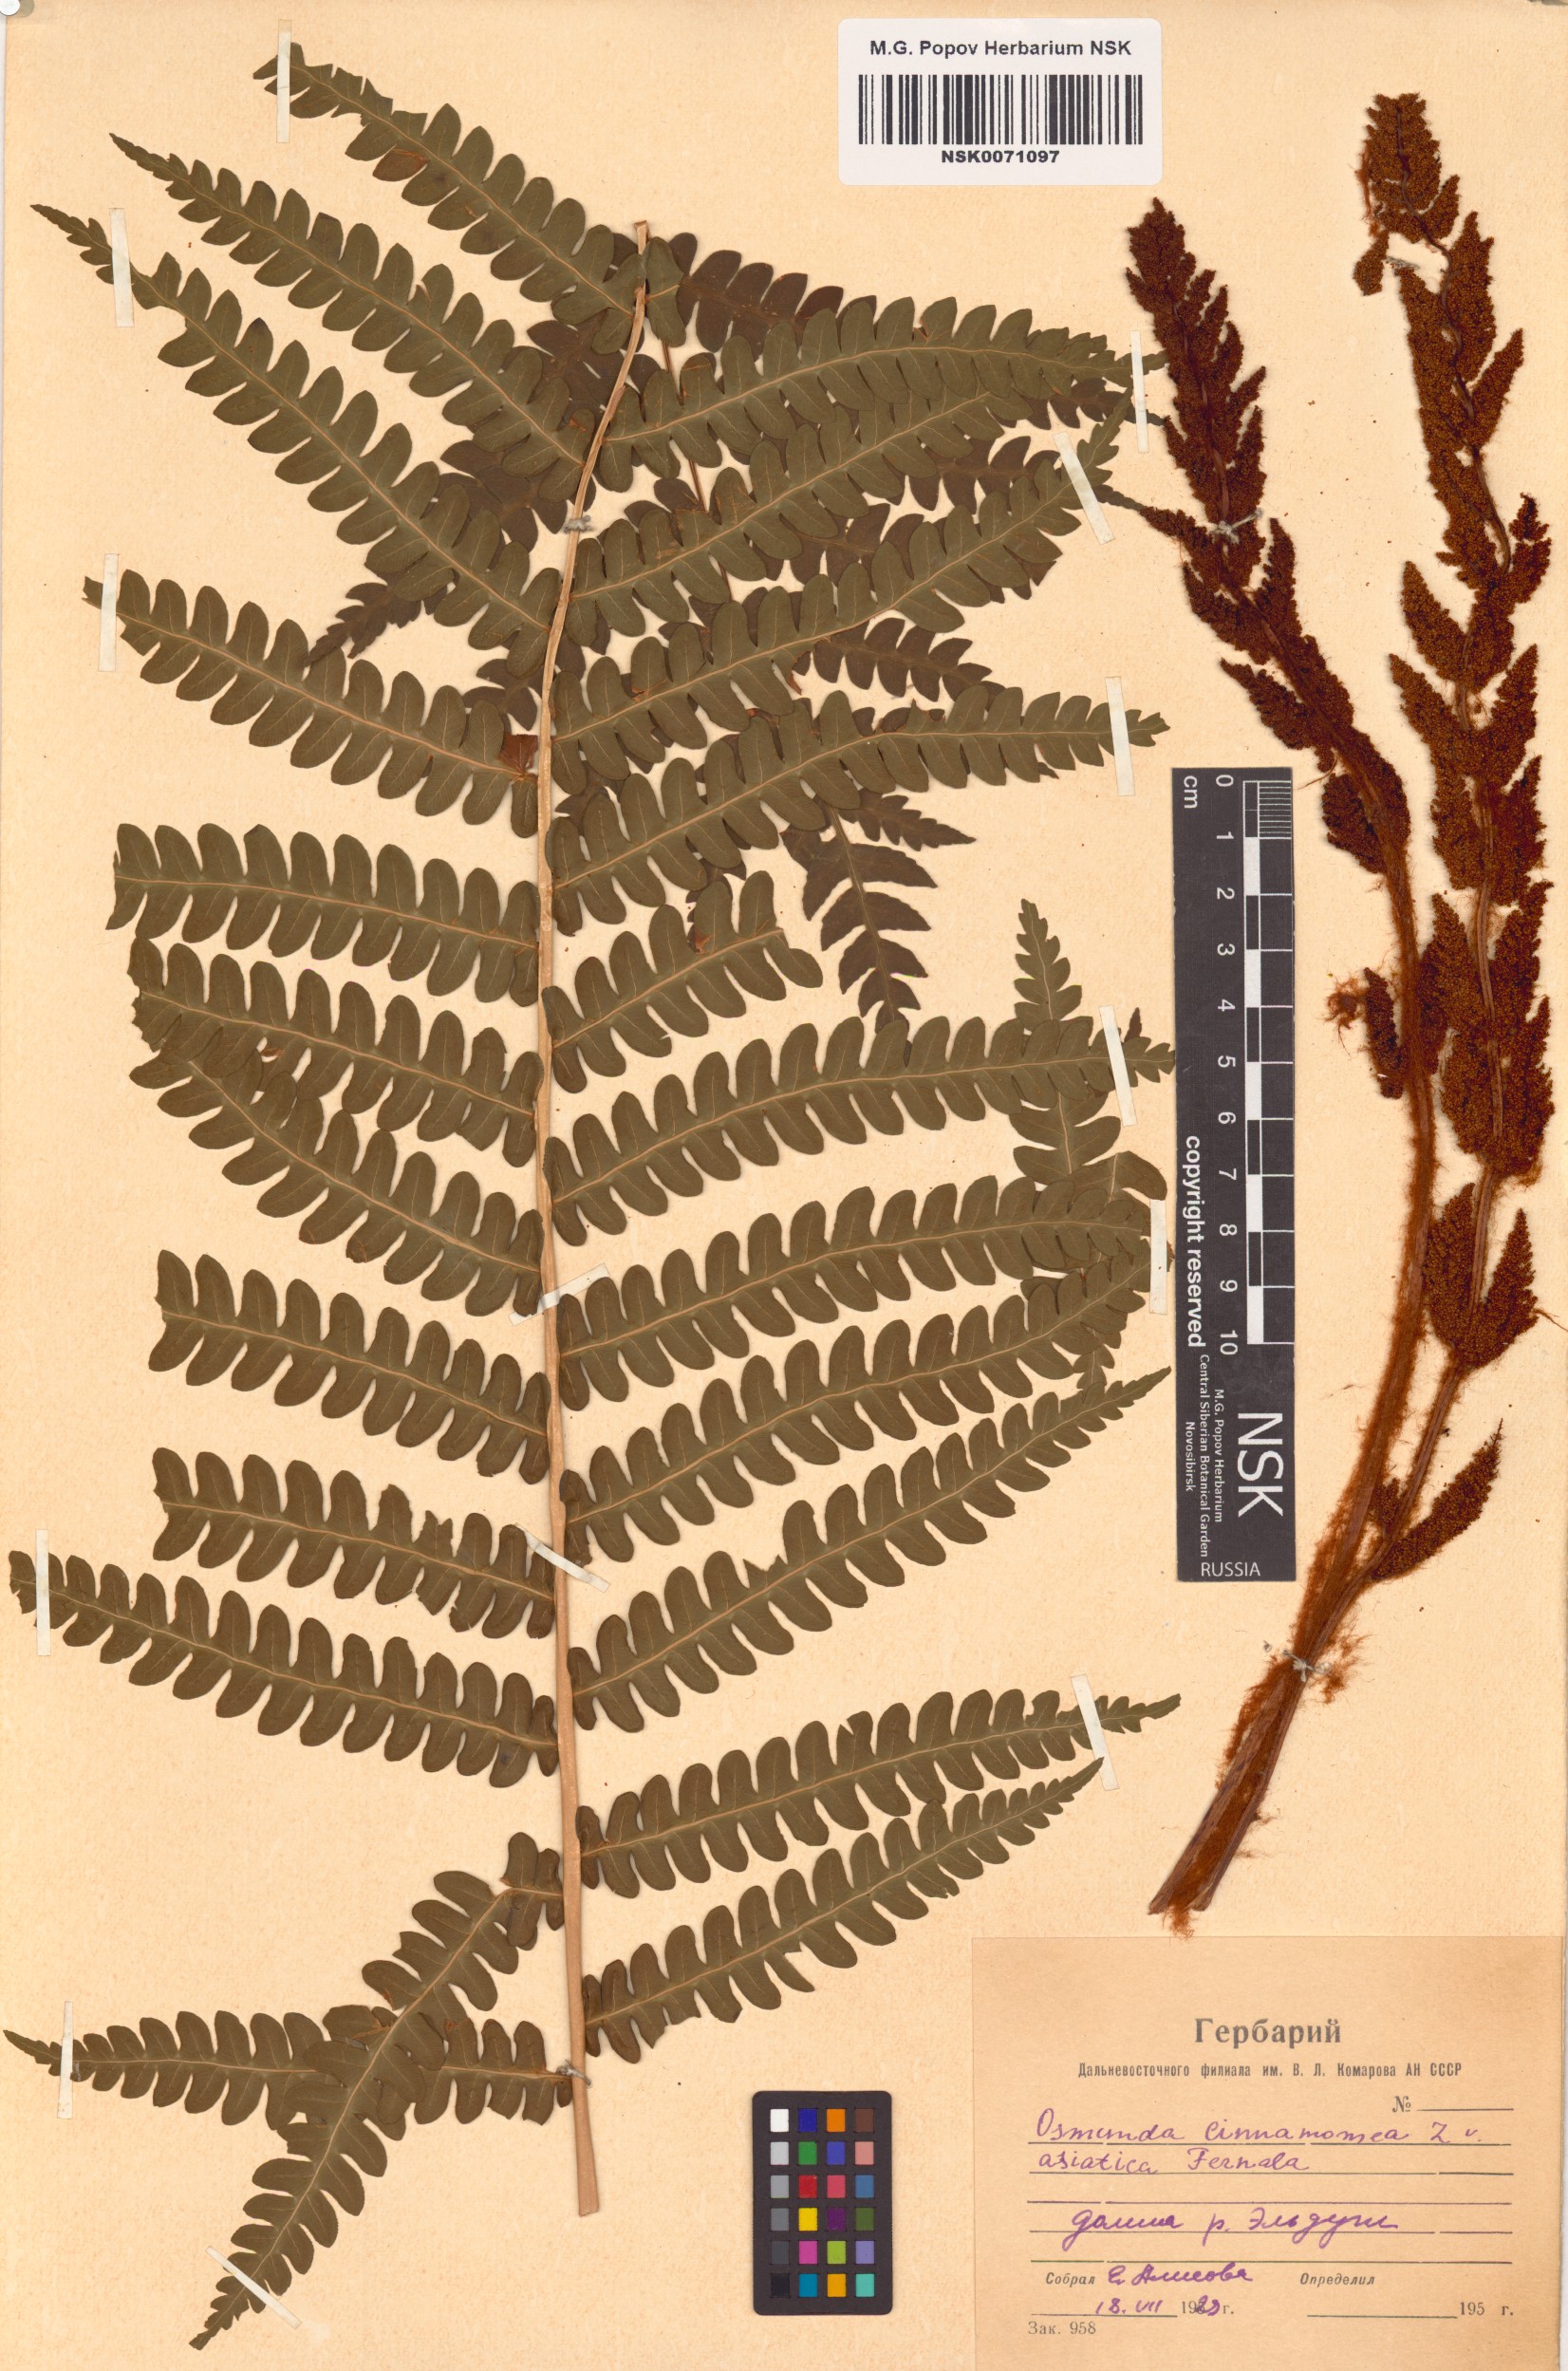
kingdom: Plantae
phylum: Tracheophyta
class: Polypodiopsida
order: Osmundales
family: Osmundaceae
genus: Osmundastrum
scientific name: Osmundastrum cinnamomeum
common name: Cinnamon fern
